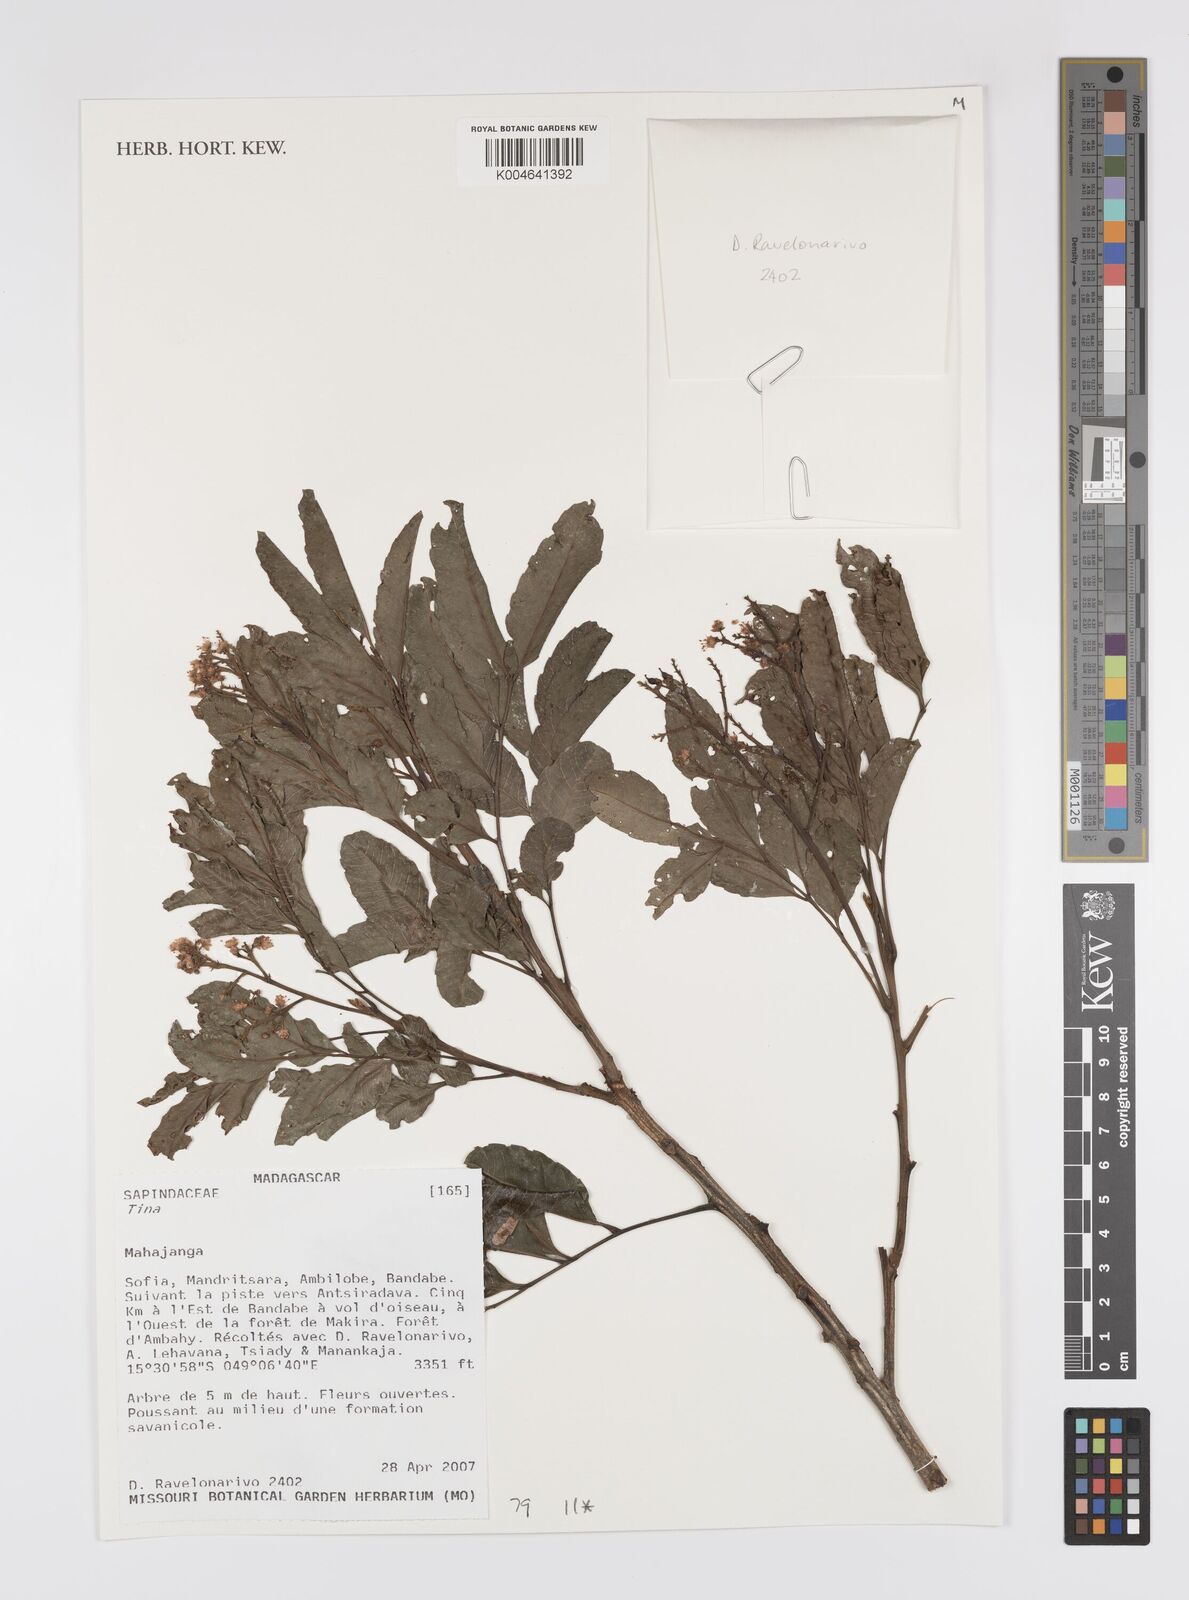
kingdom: Plantae
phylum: Tracheophyta
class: Magnoliopsida
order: Sapindales
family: Sapindaceae
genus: Tina
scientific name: Tina
